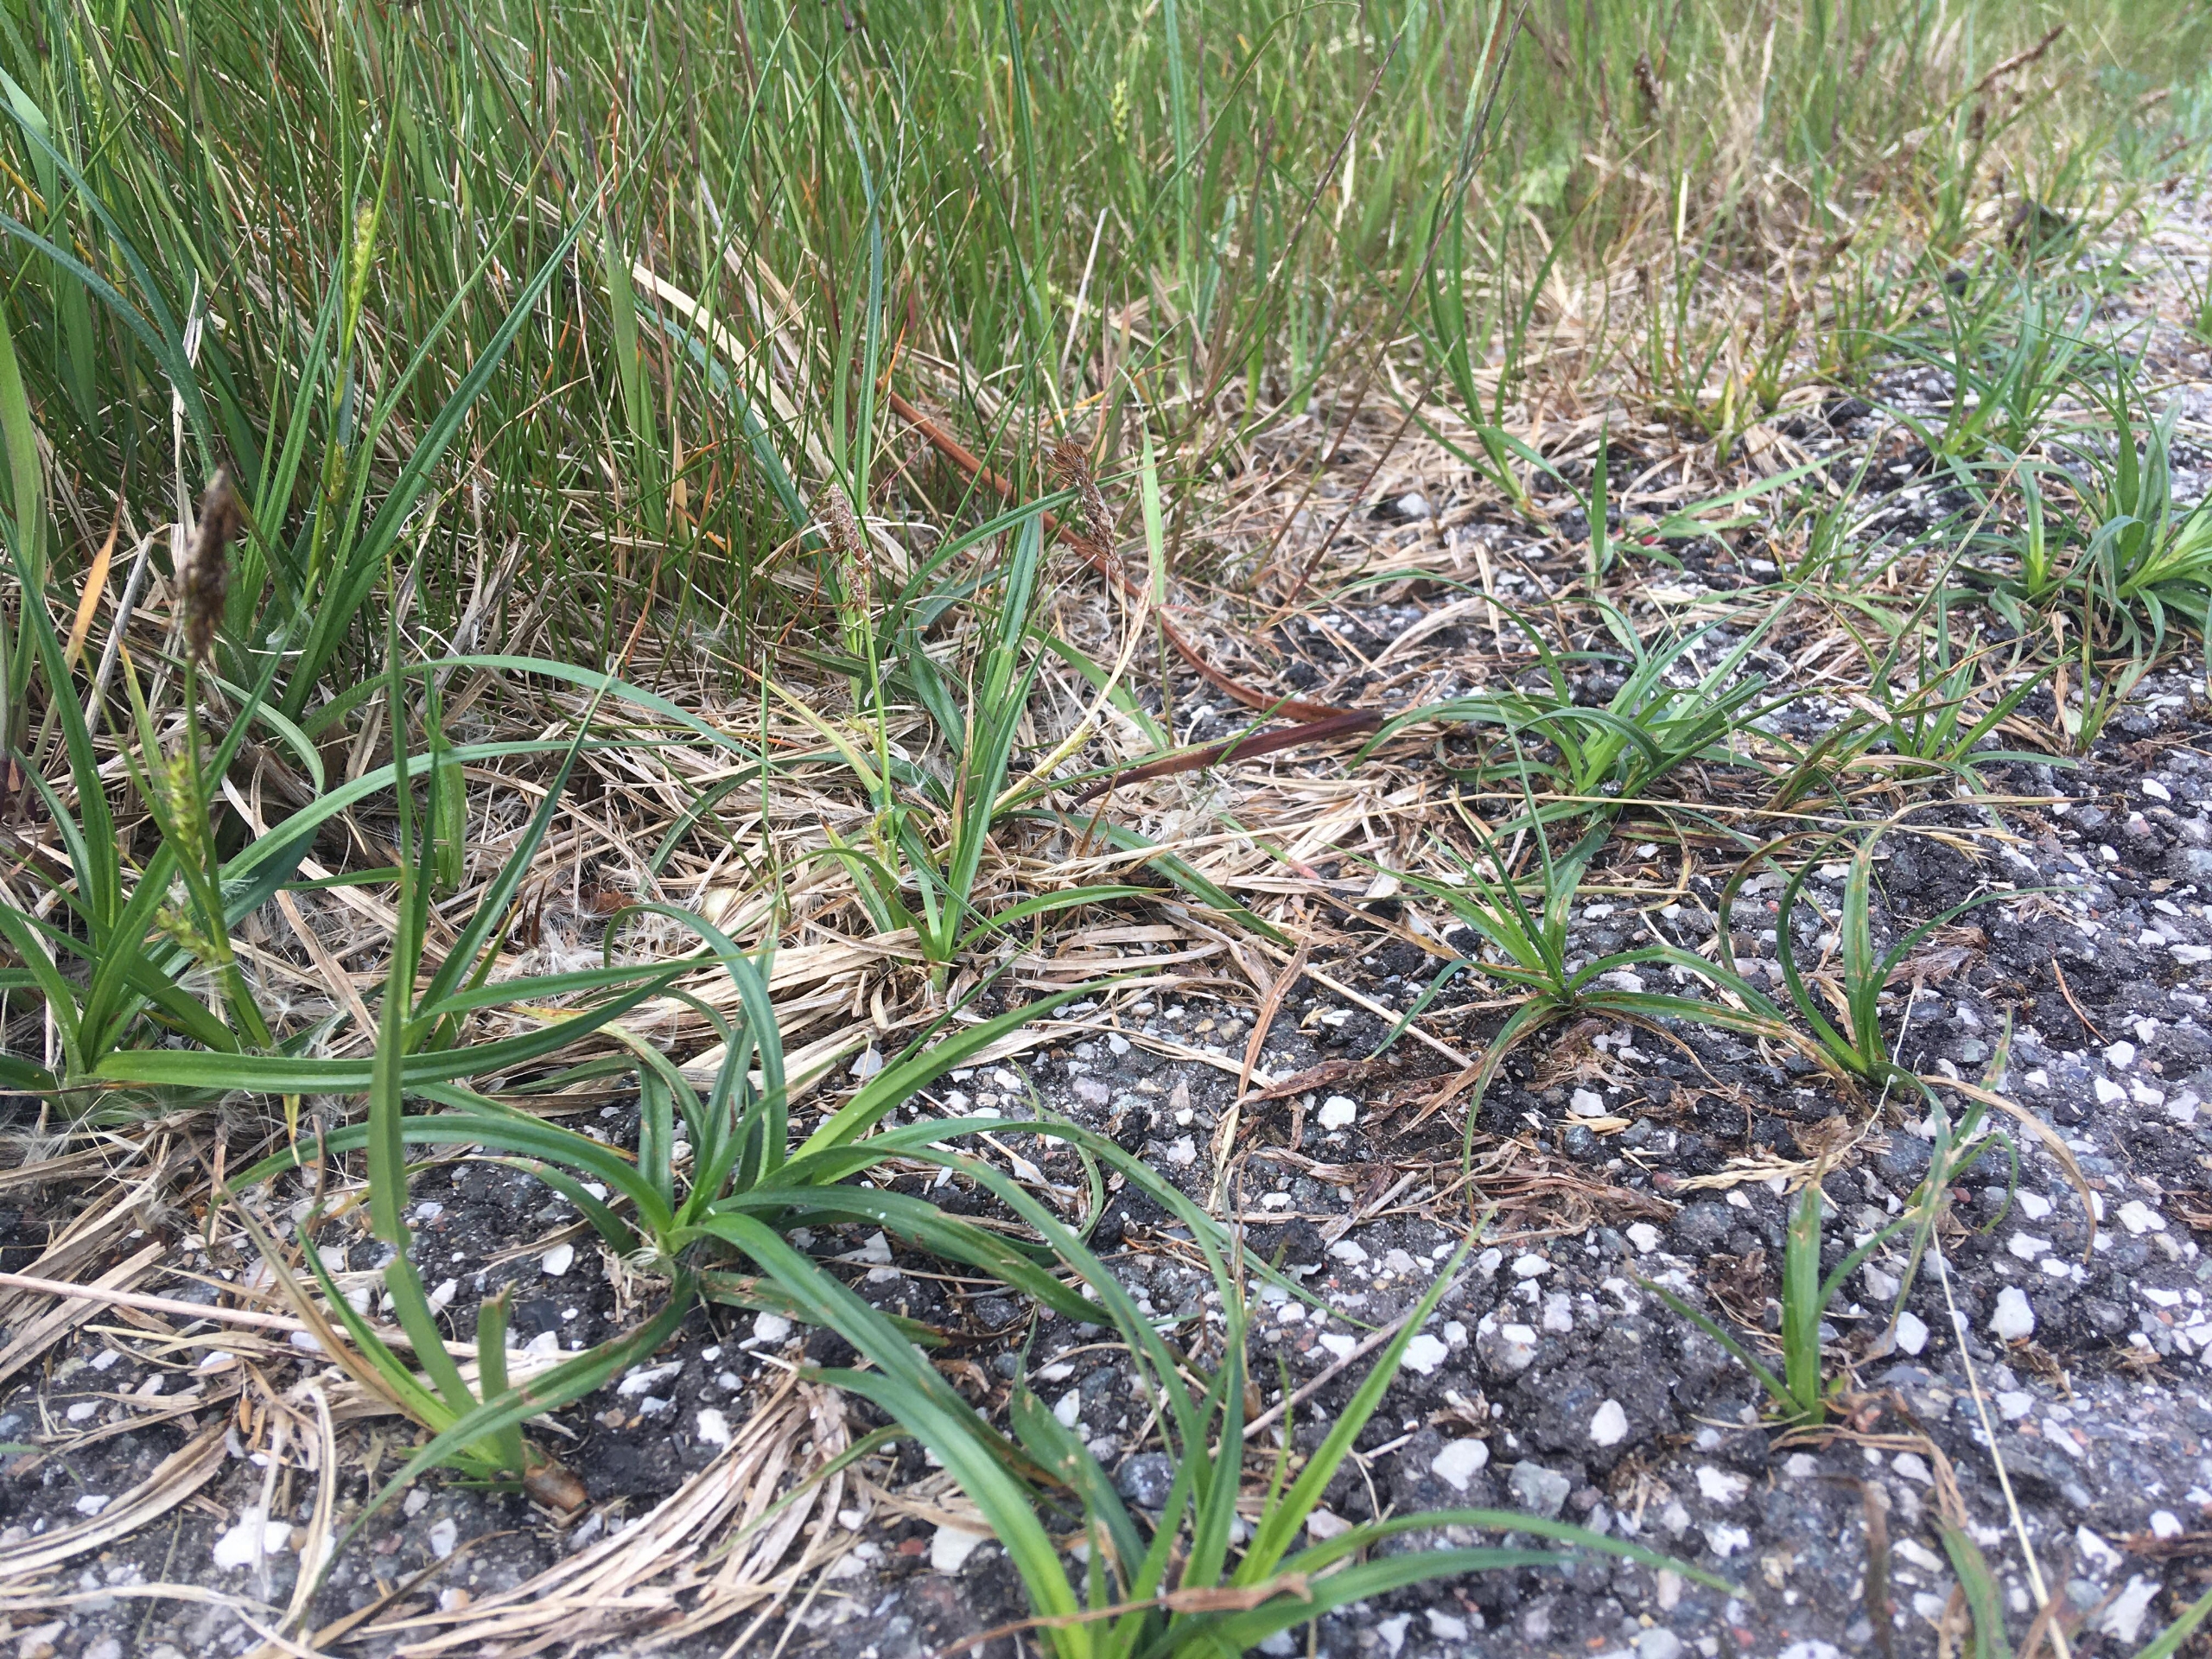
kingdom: Plantae
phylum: Tracheophyta
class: Liliopsida
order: Poales
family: Cyperaceae
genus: Carex
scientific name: Carex hirta
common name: Håret star
